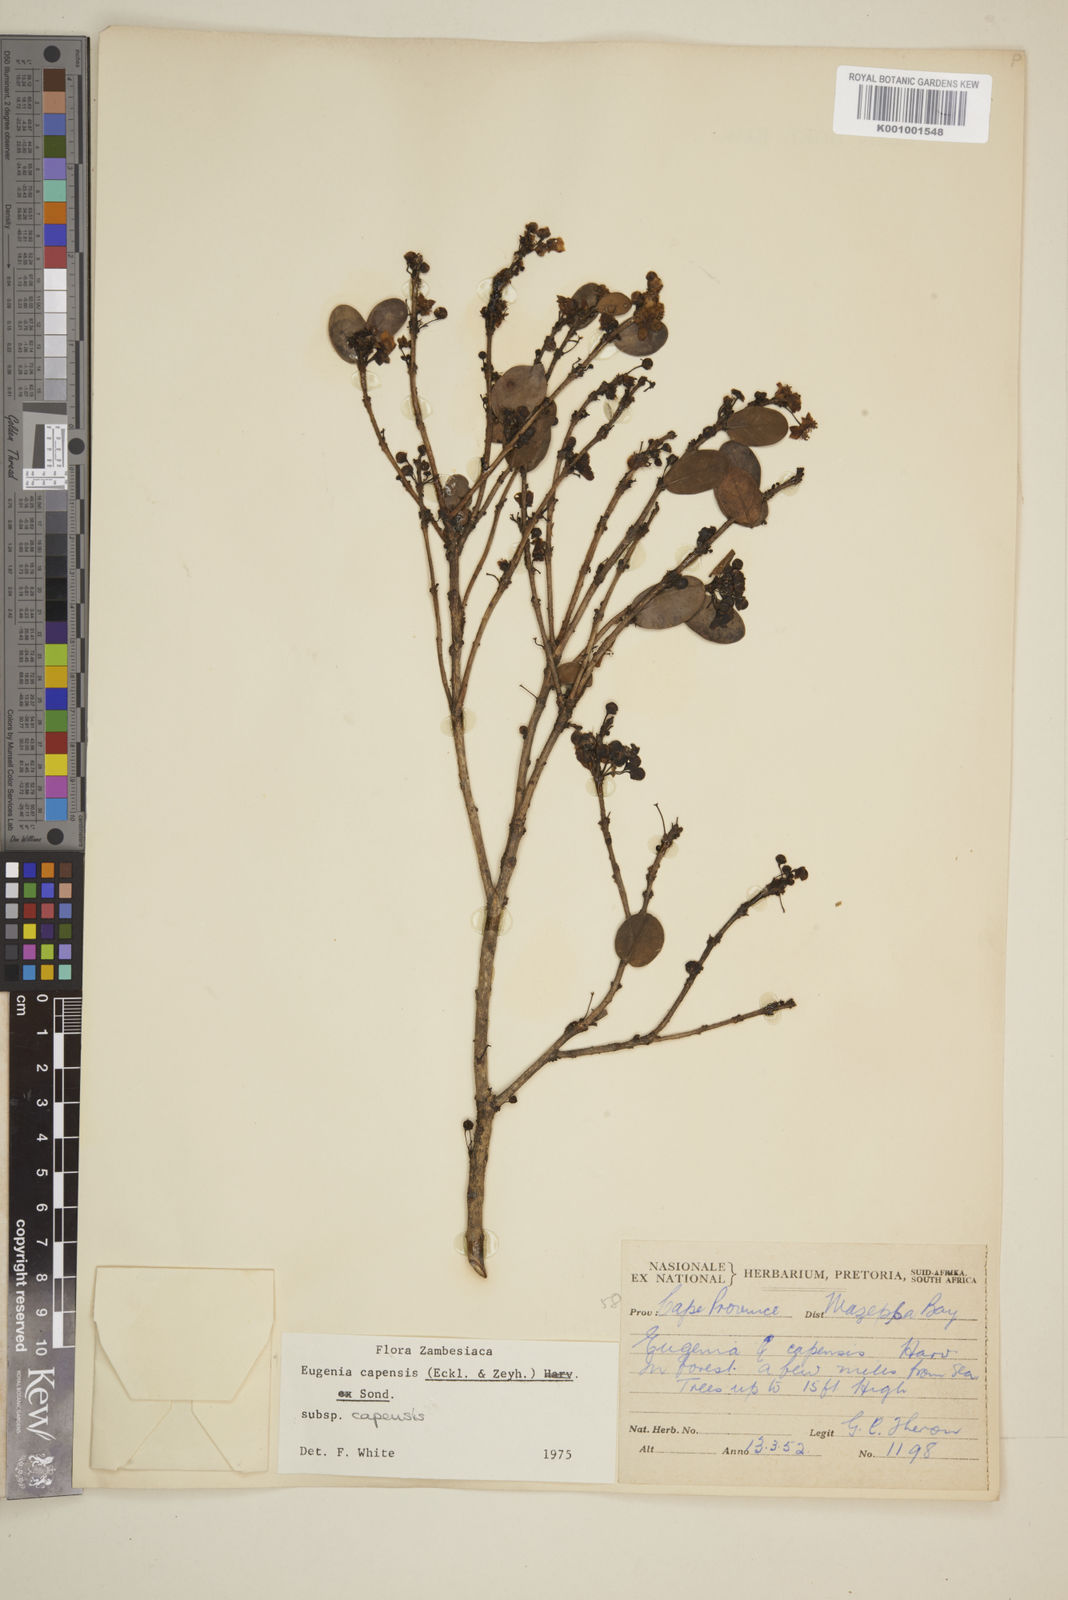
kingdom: Plantae
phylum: Tracheophyta
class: Magnoliopsida
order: Myrtales
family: Myrtaceae
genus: Eugenia
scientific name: Eugenia capensis
